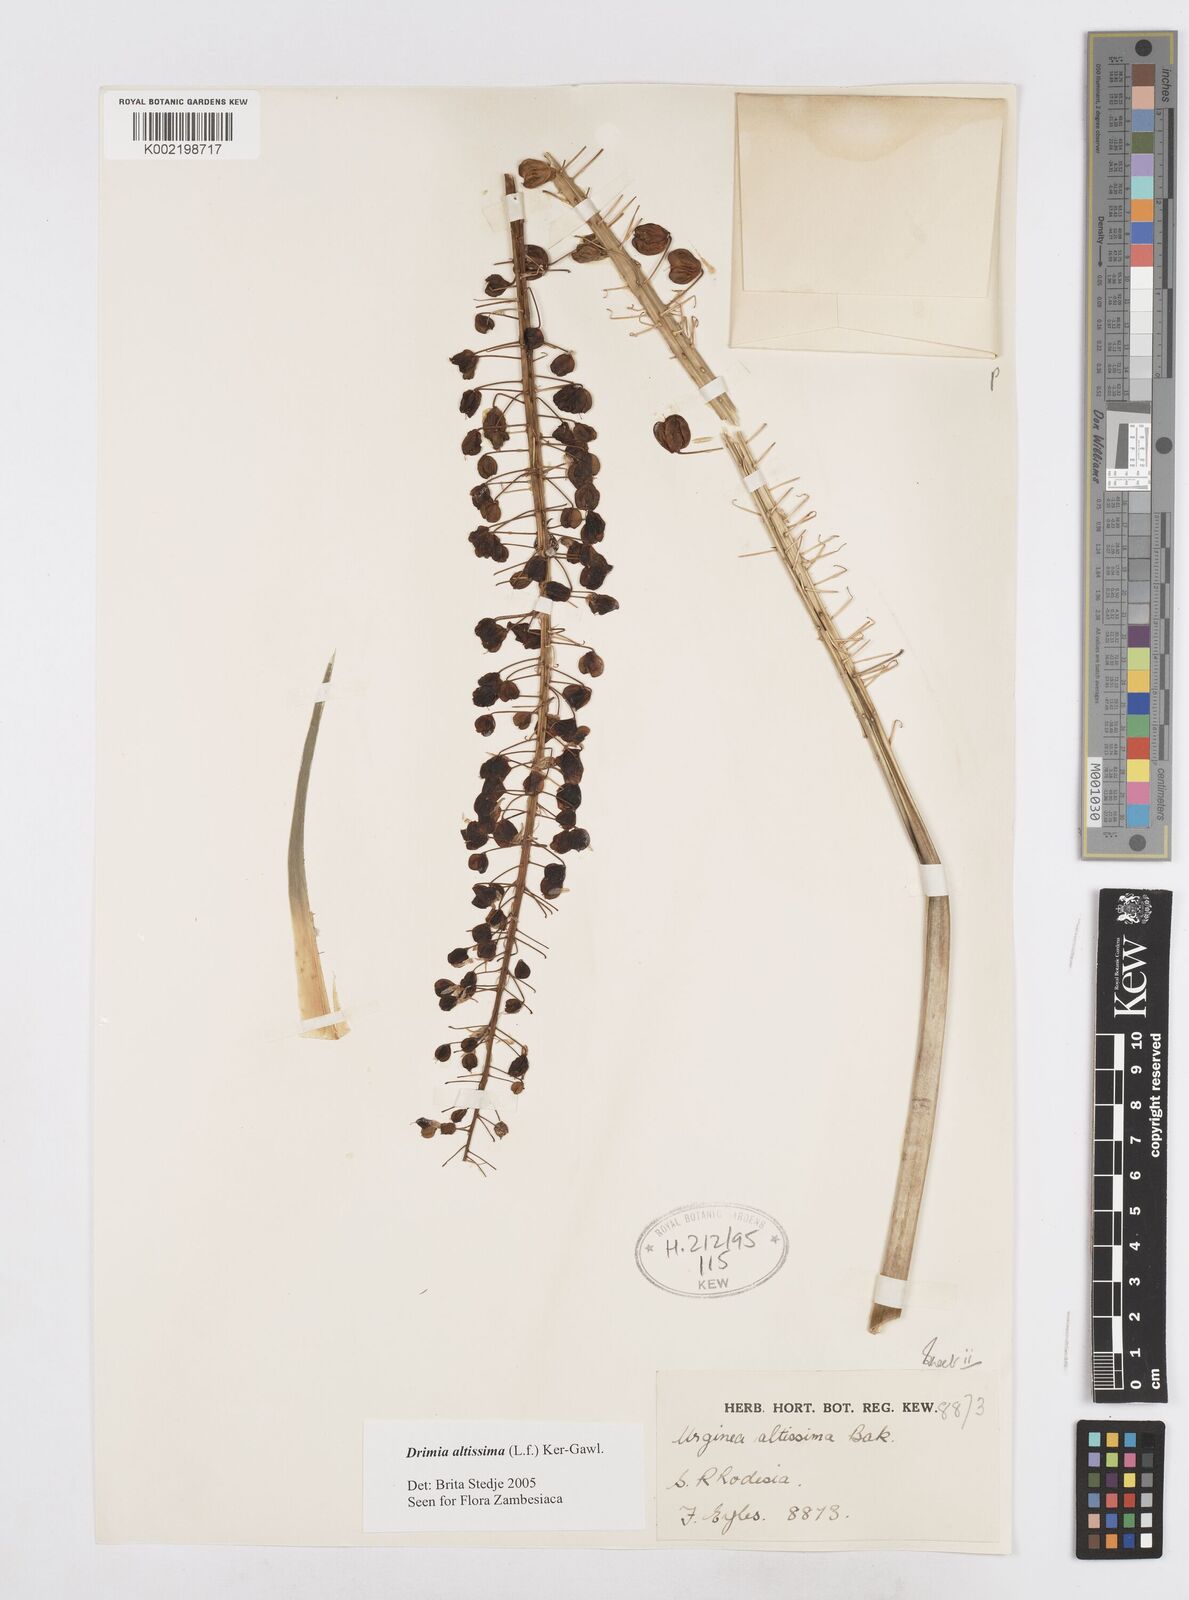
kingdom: Plantae
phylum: Tracheophyta
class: Liliopsida
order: Asparagales
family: Asparagaceae
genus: Drimia
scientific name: Drimia
